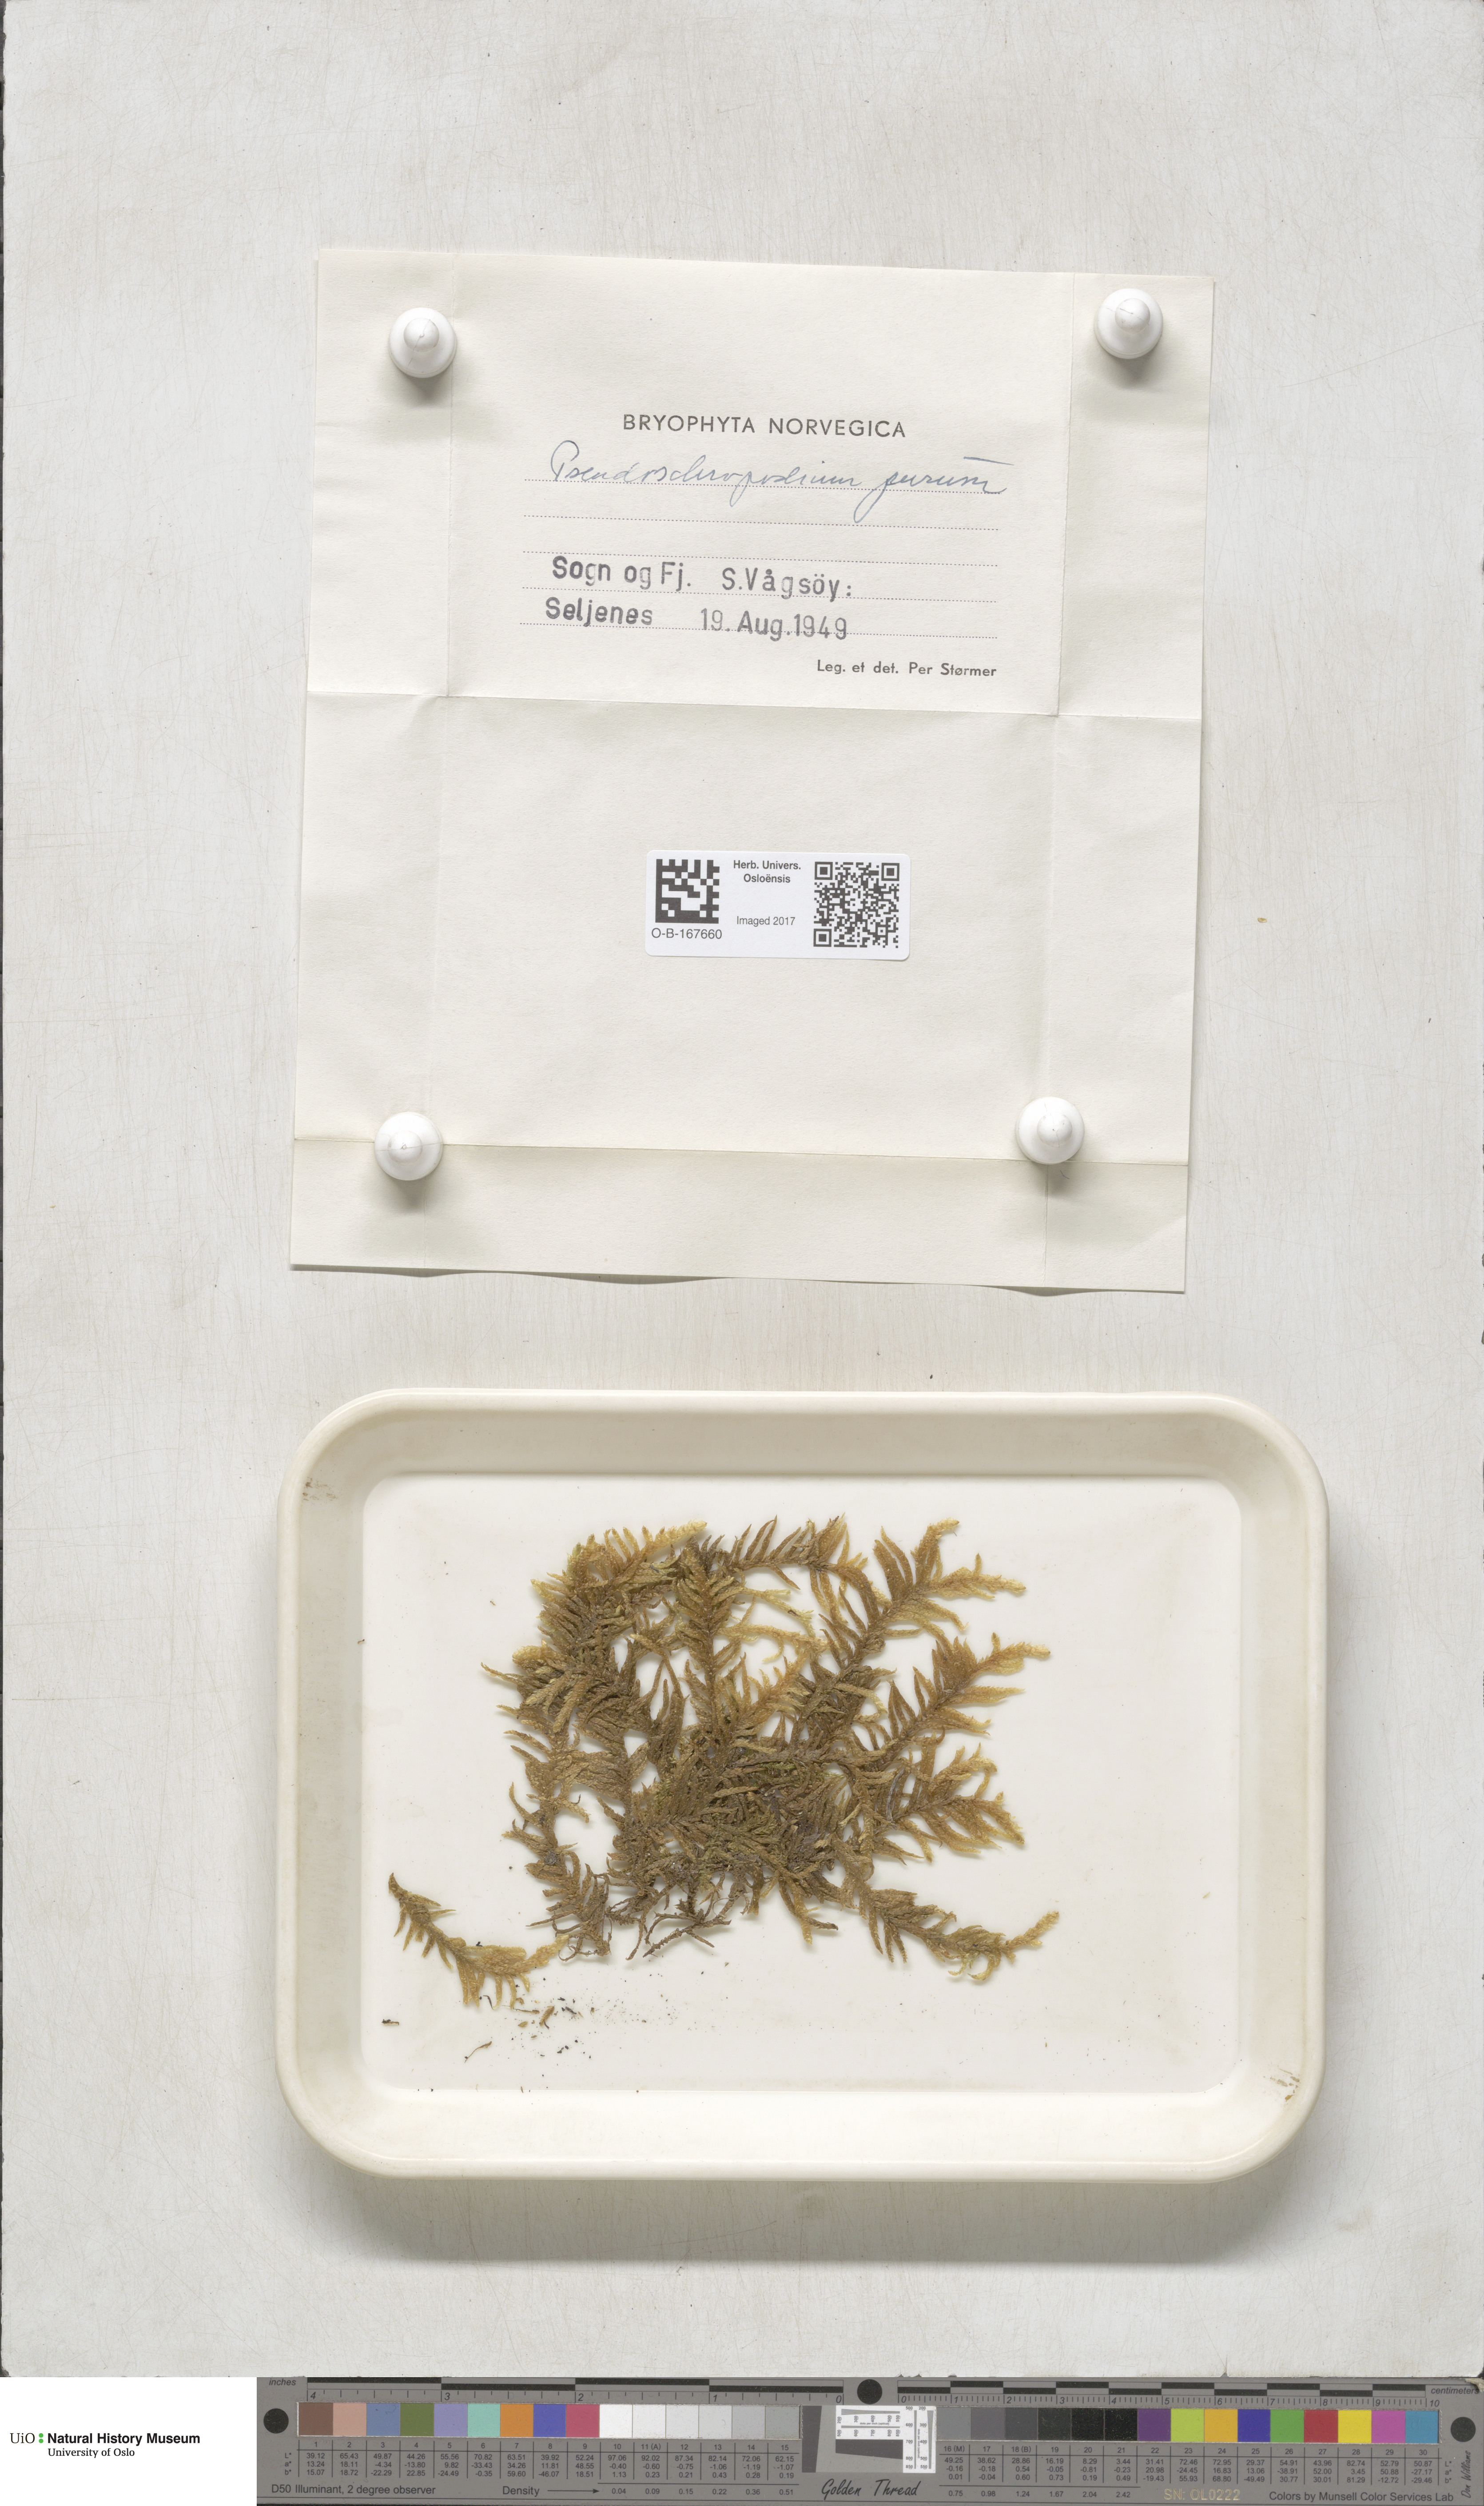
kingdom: Plantae
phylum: Bryophyta
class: Bryopsida
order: Hypnales
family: Brachytheciaceae
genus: Pseudoscleropodium
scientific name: Pseudoscleropodium purum
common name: Neat feather-moss
